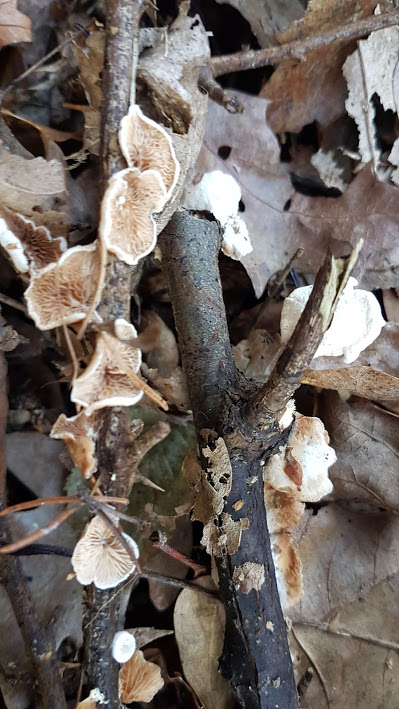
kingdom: Fungi
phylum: Basidiomycota
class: Agaricomycetes
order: Agaricales
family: Crepidotaceae
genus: Crepidotus
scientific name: Crepidotus
